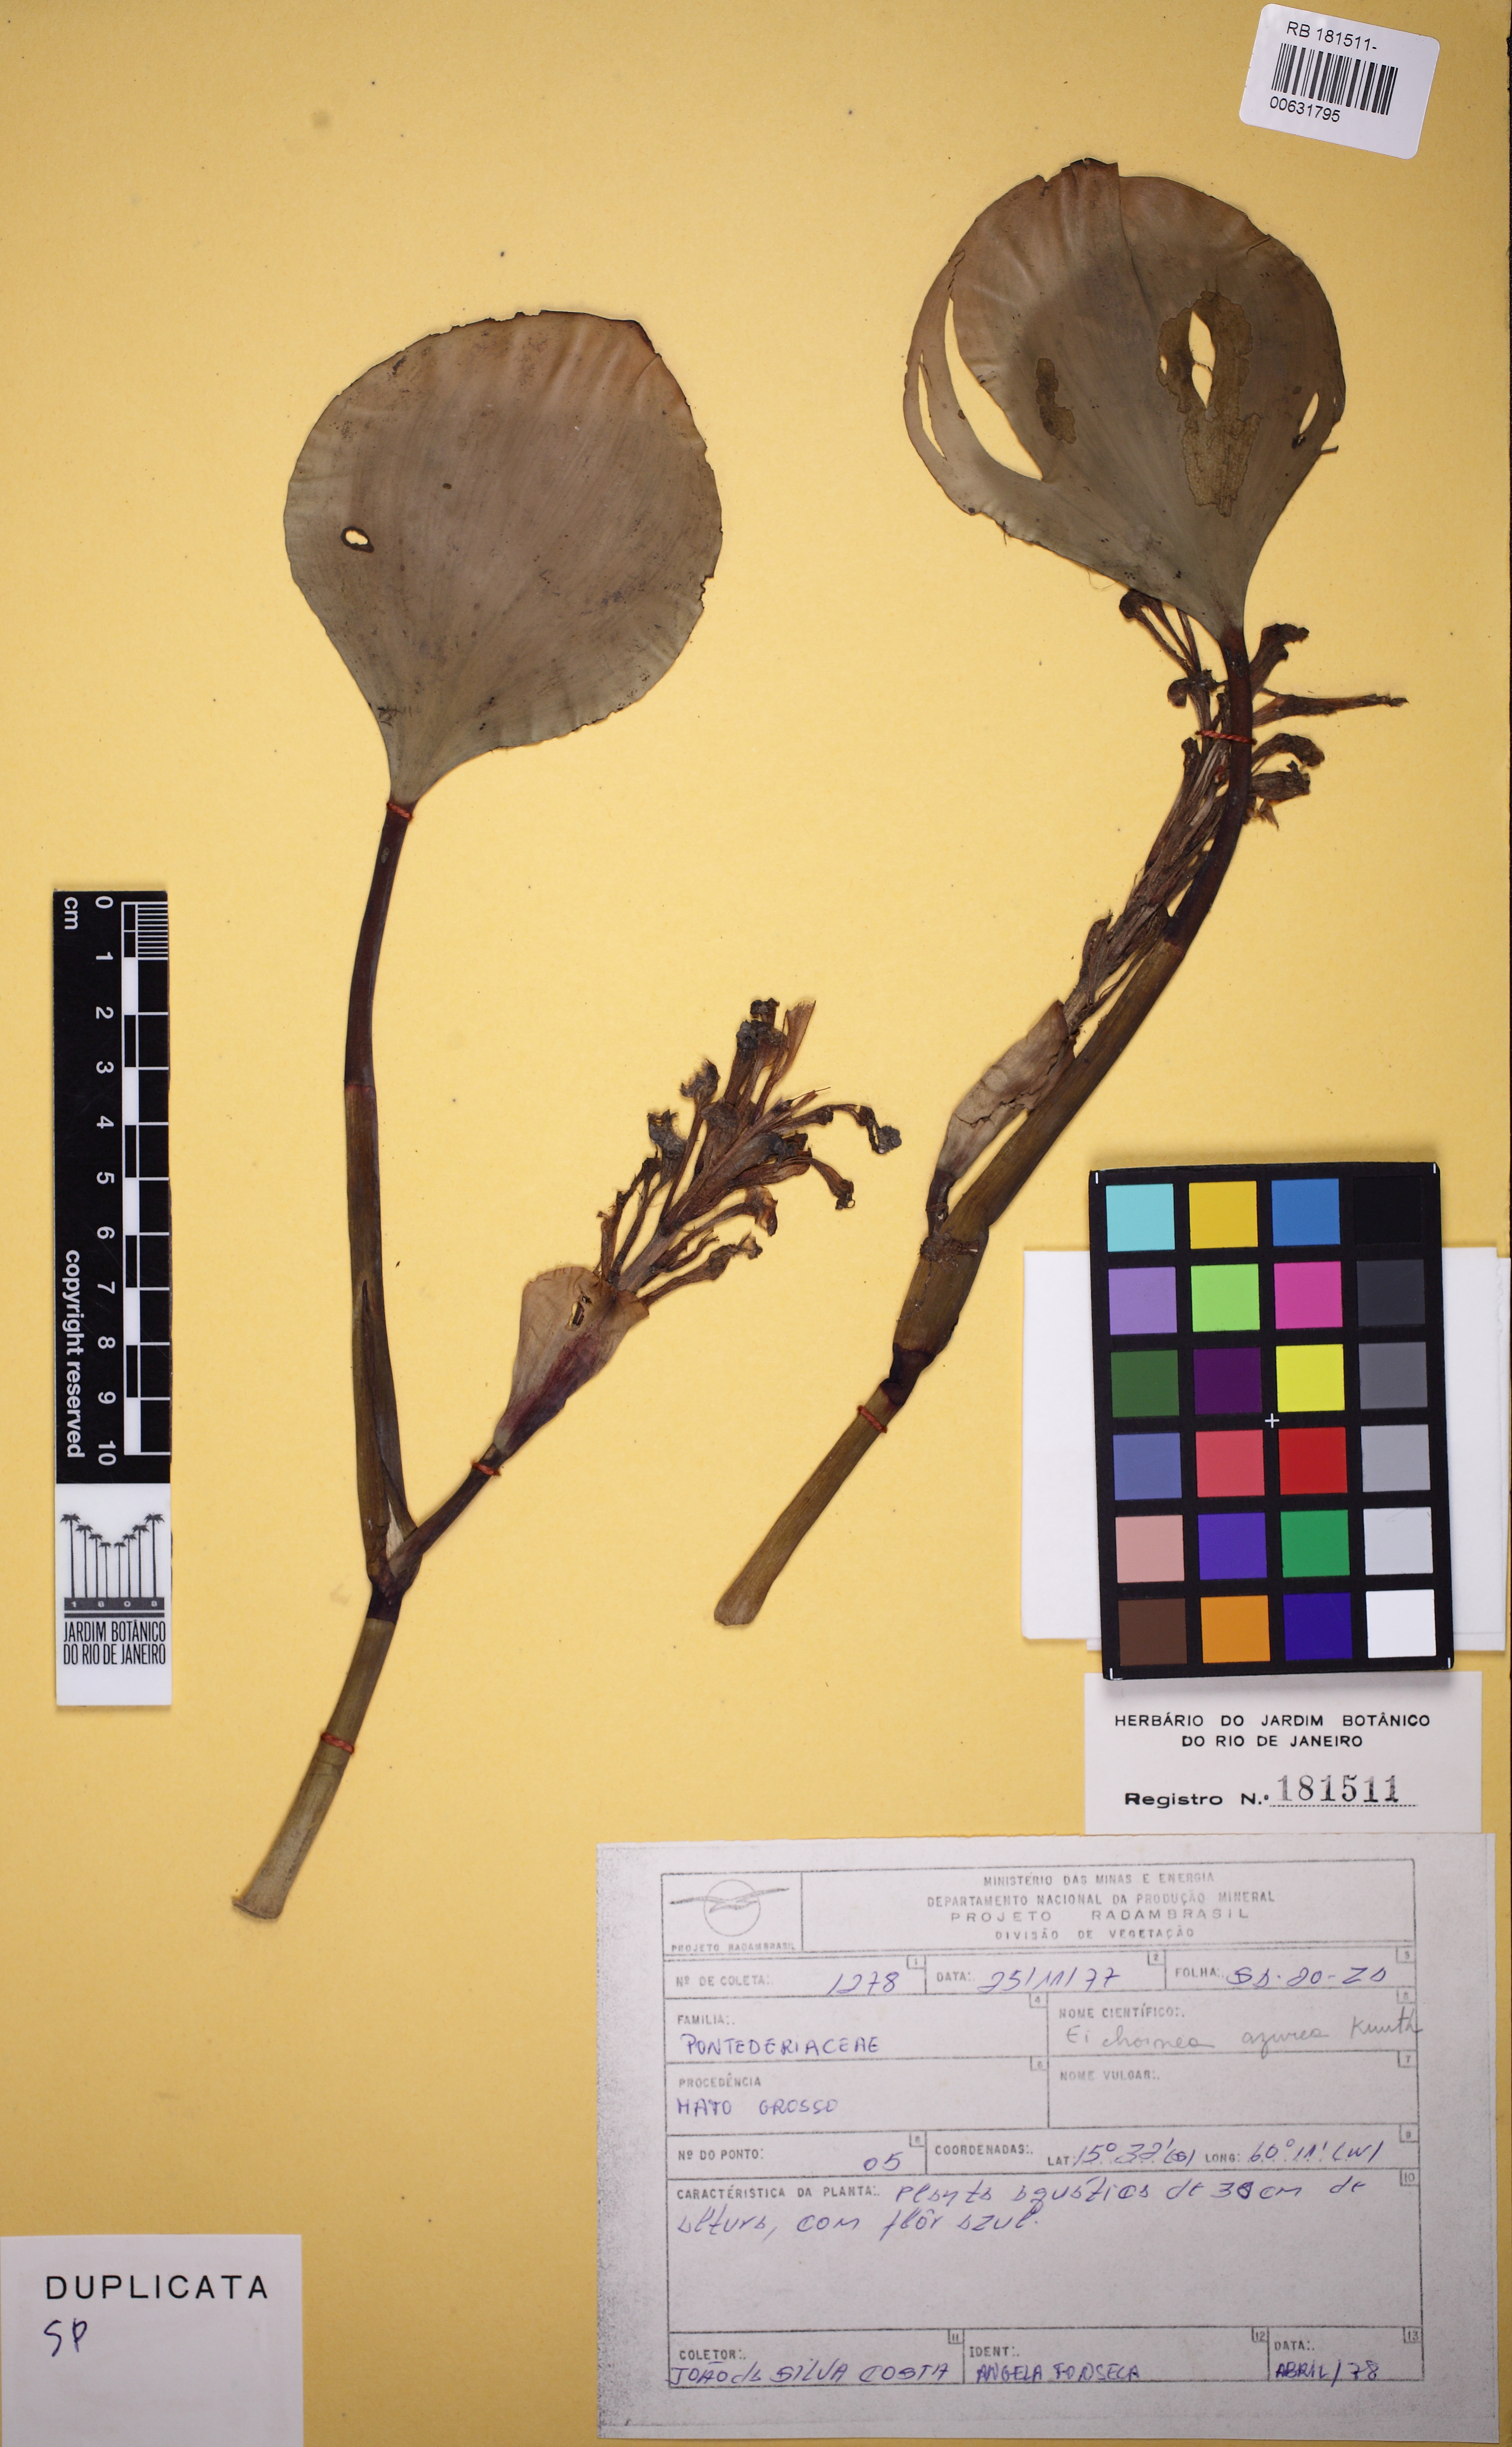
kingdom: Plantae
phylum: Tracheophyta
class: Liliopsida
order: Commelinales
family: Pontederiaceae
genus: Pontederia
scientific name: Pontederia azurea
